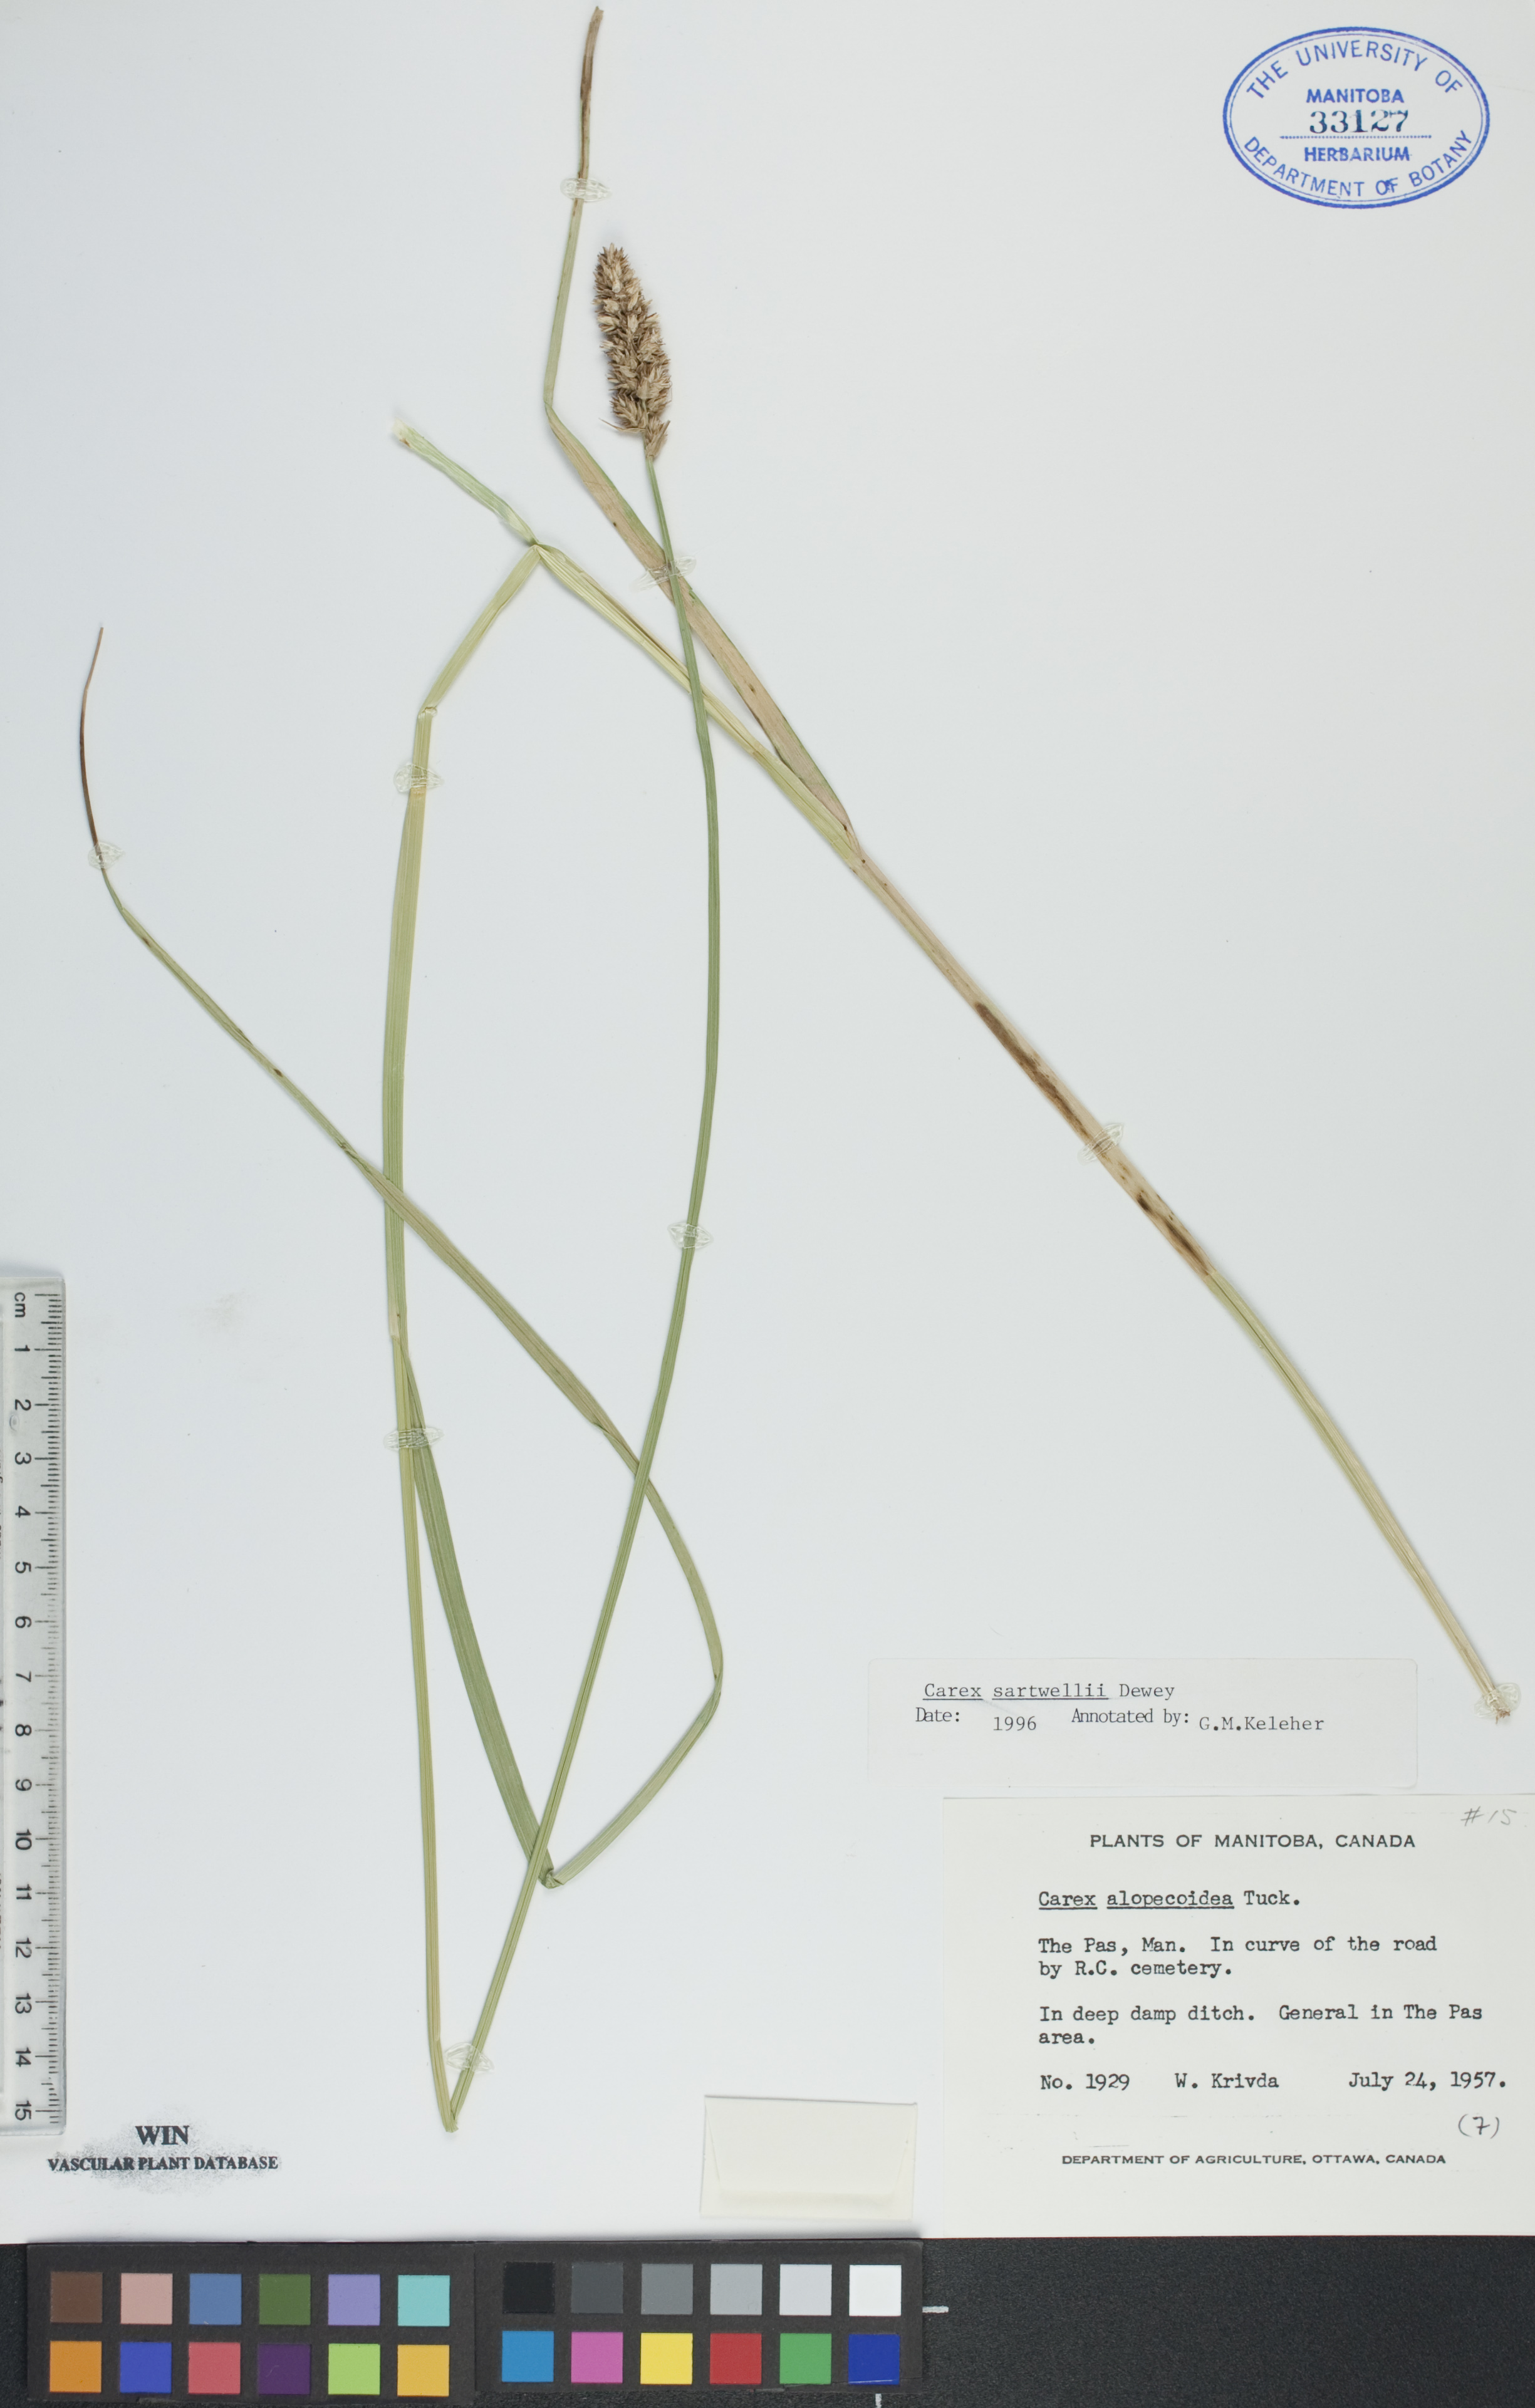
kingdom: Plantae
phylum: Tracheophyta
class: Liliopsida
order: Poales
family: Cyperaceae
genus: Carex
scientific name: Carex sartwellii
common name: Sartwell's sedge
